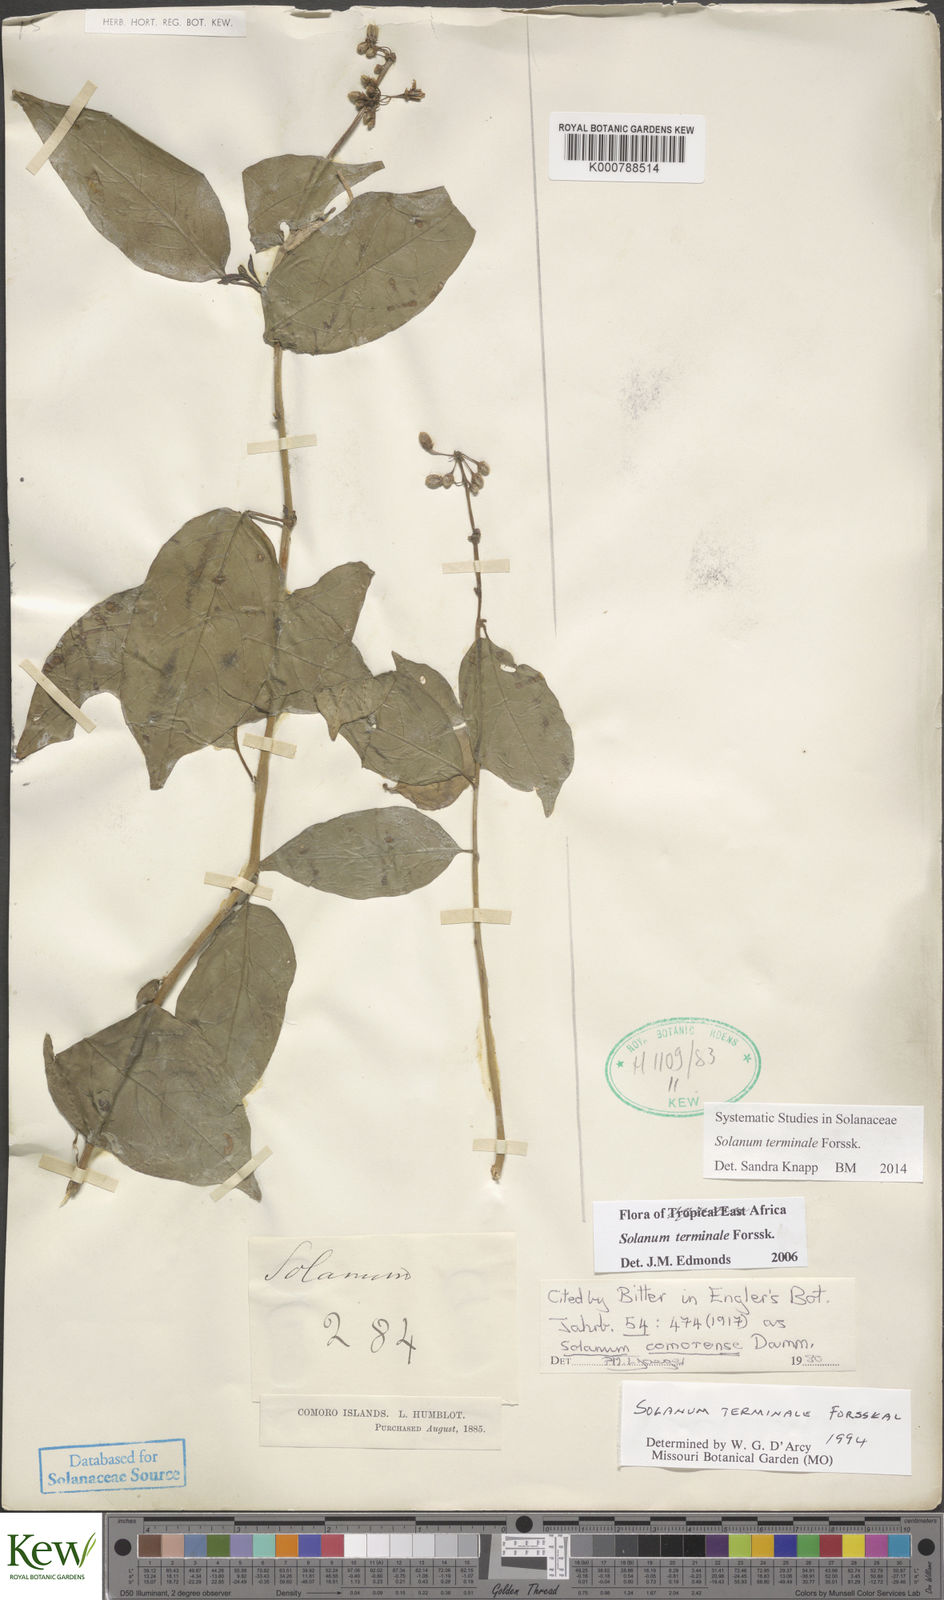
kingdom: Plantae
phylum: Tracheophyta
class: Magnoliopsida
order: Solanales
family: Solanaceae
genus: Solanum
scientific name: Solanum terminale
